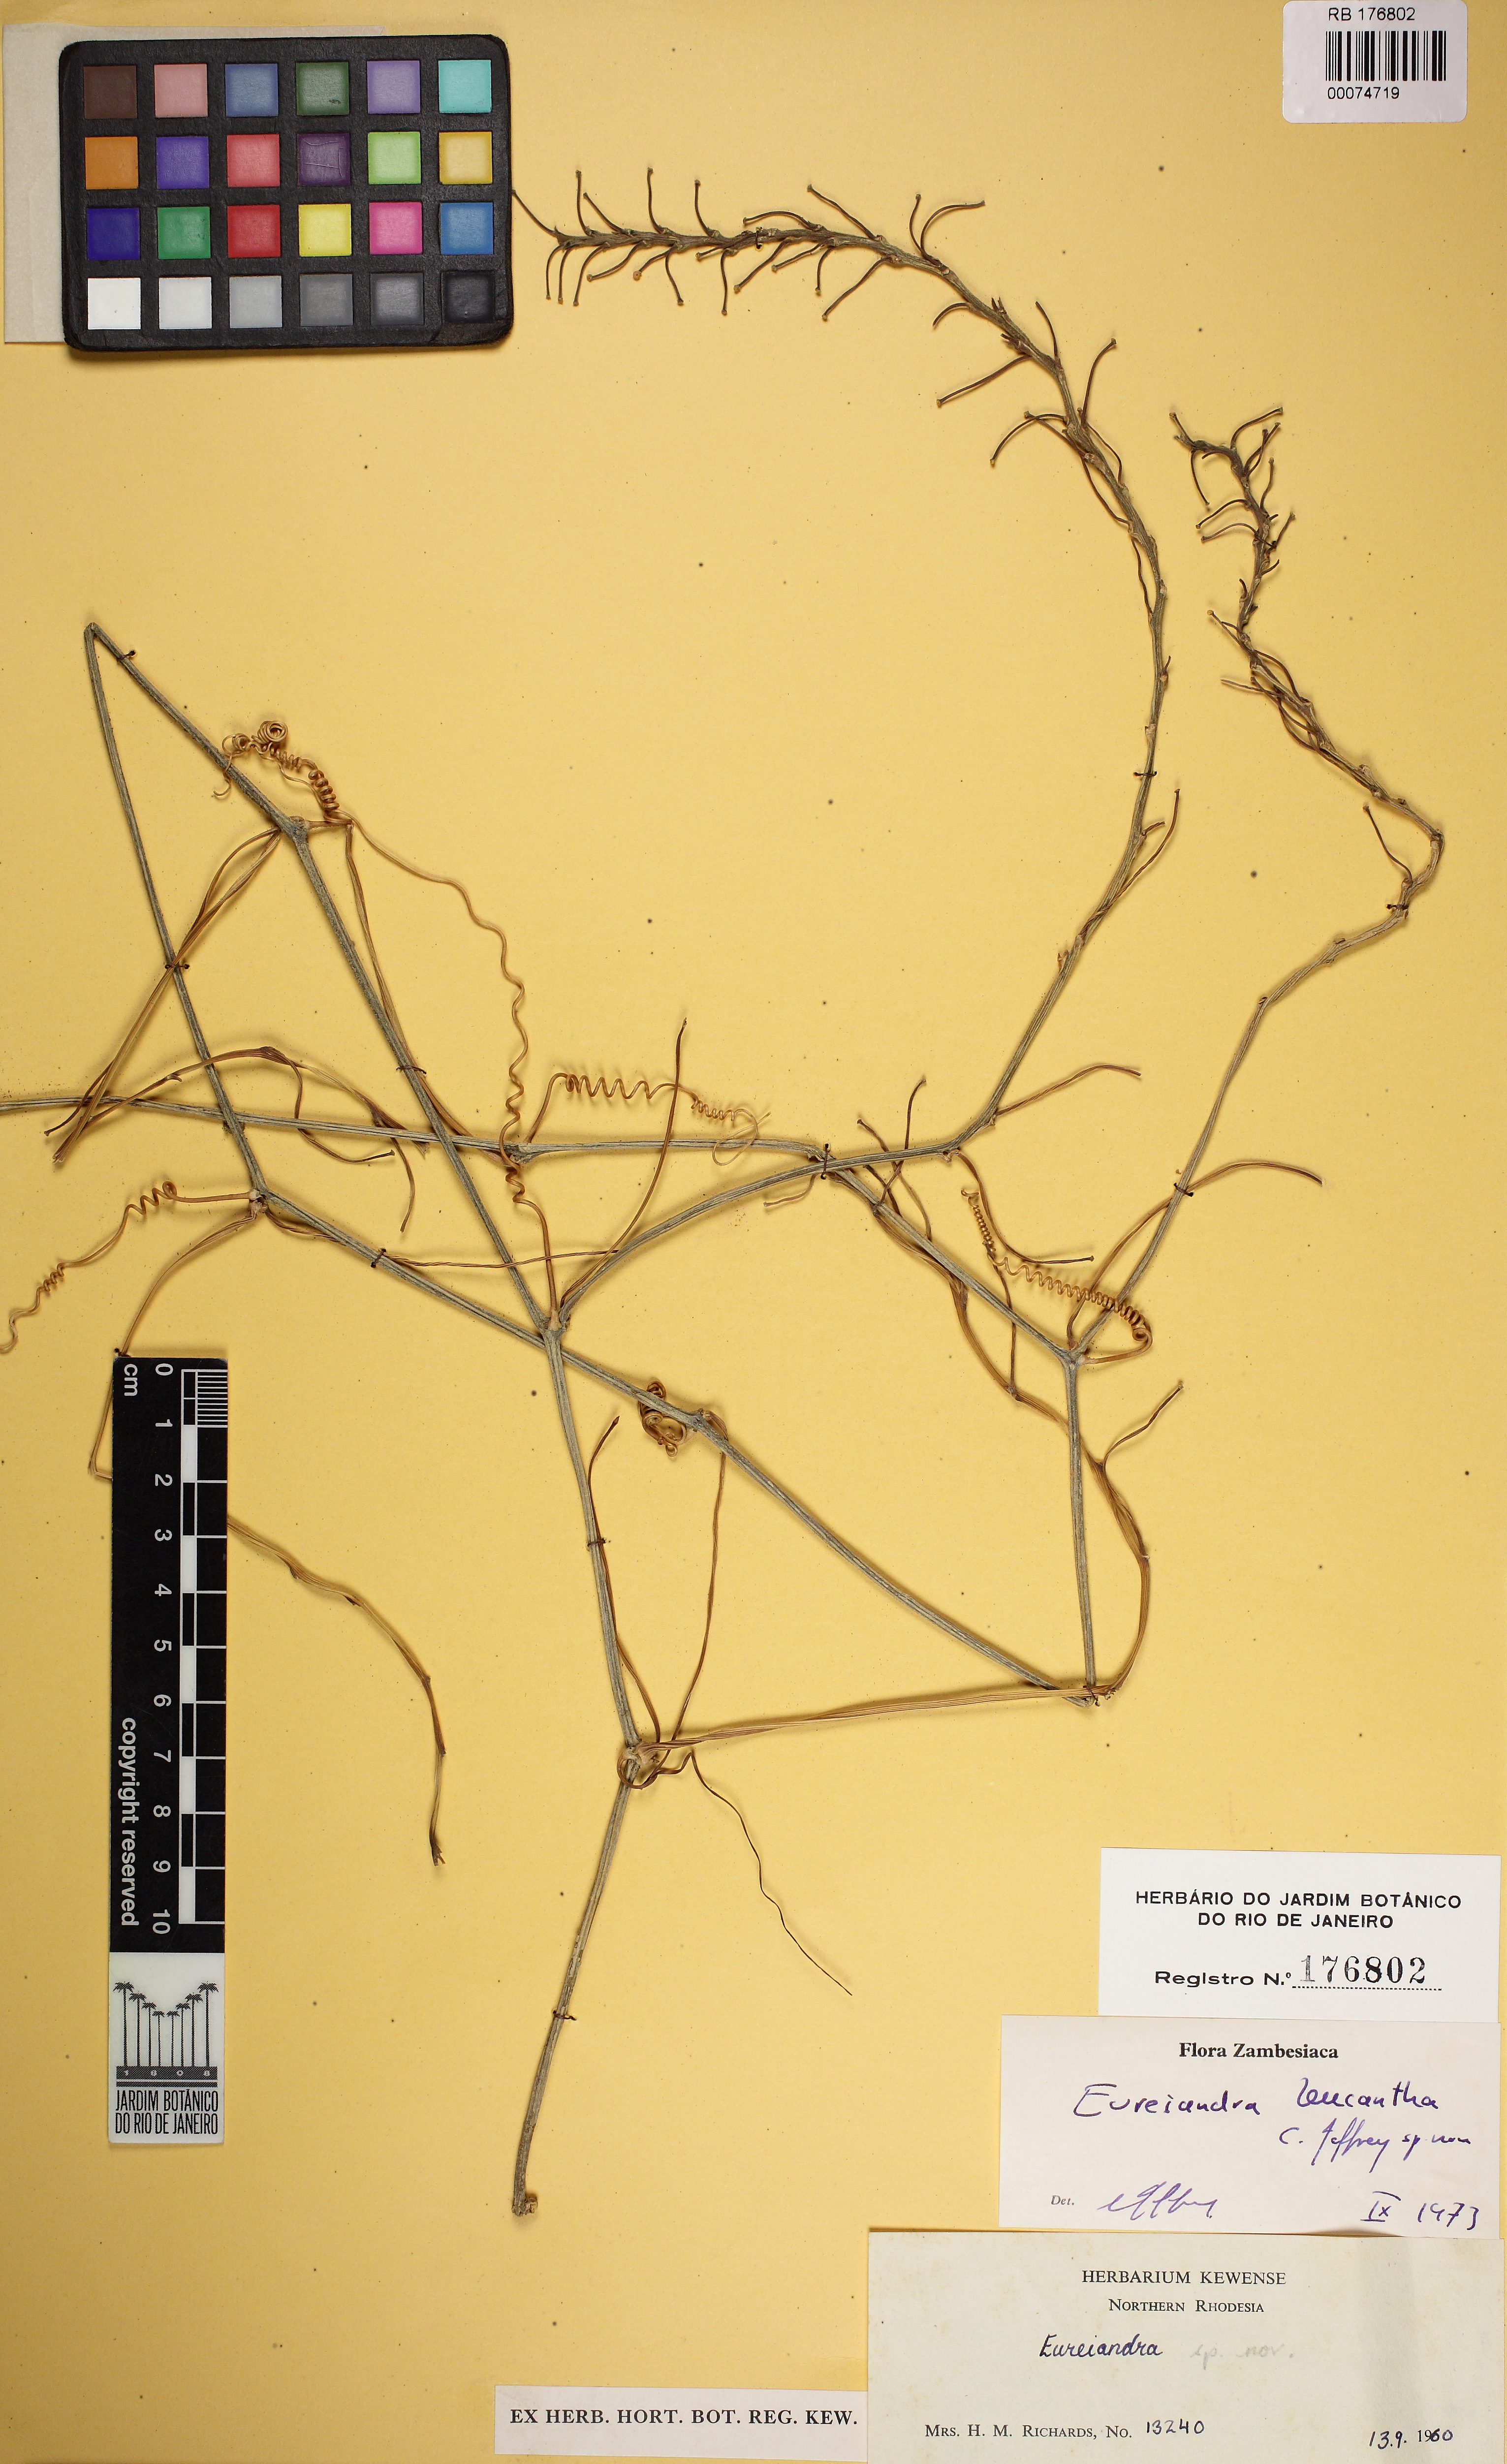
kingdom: Plantae
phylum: Tracheophyta
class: Magnoliopsida
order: Cucurbitales
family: Cucurbitaceae
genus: Eureiandra
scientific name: Eureiandra leucantha
